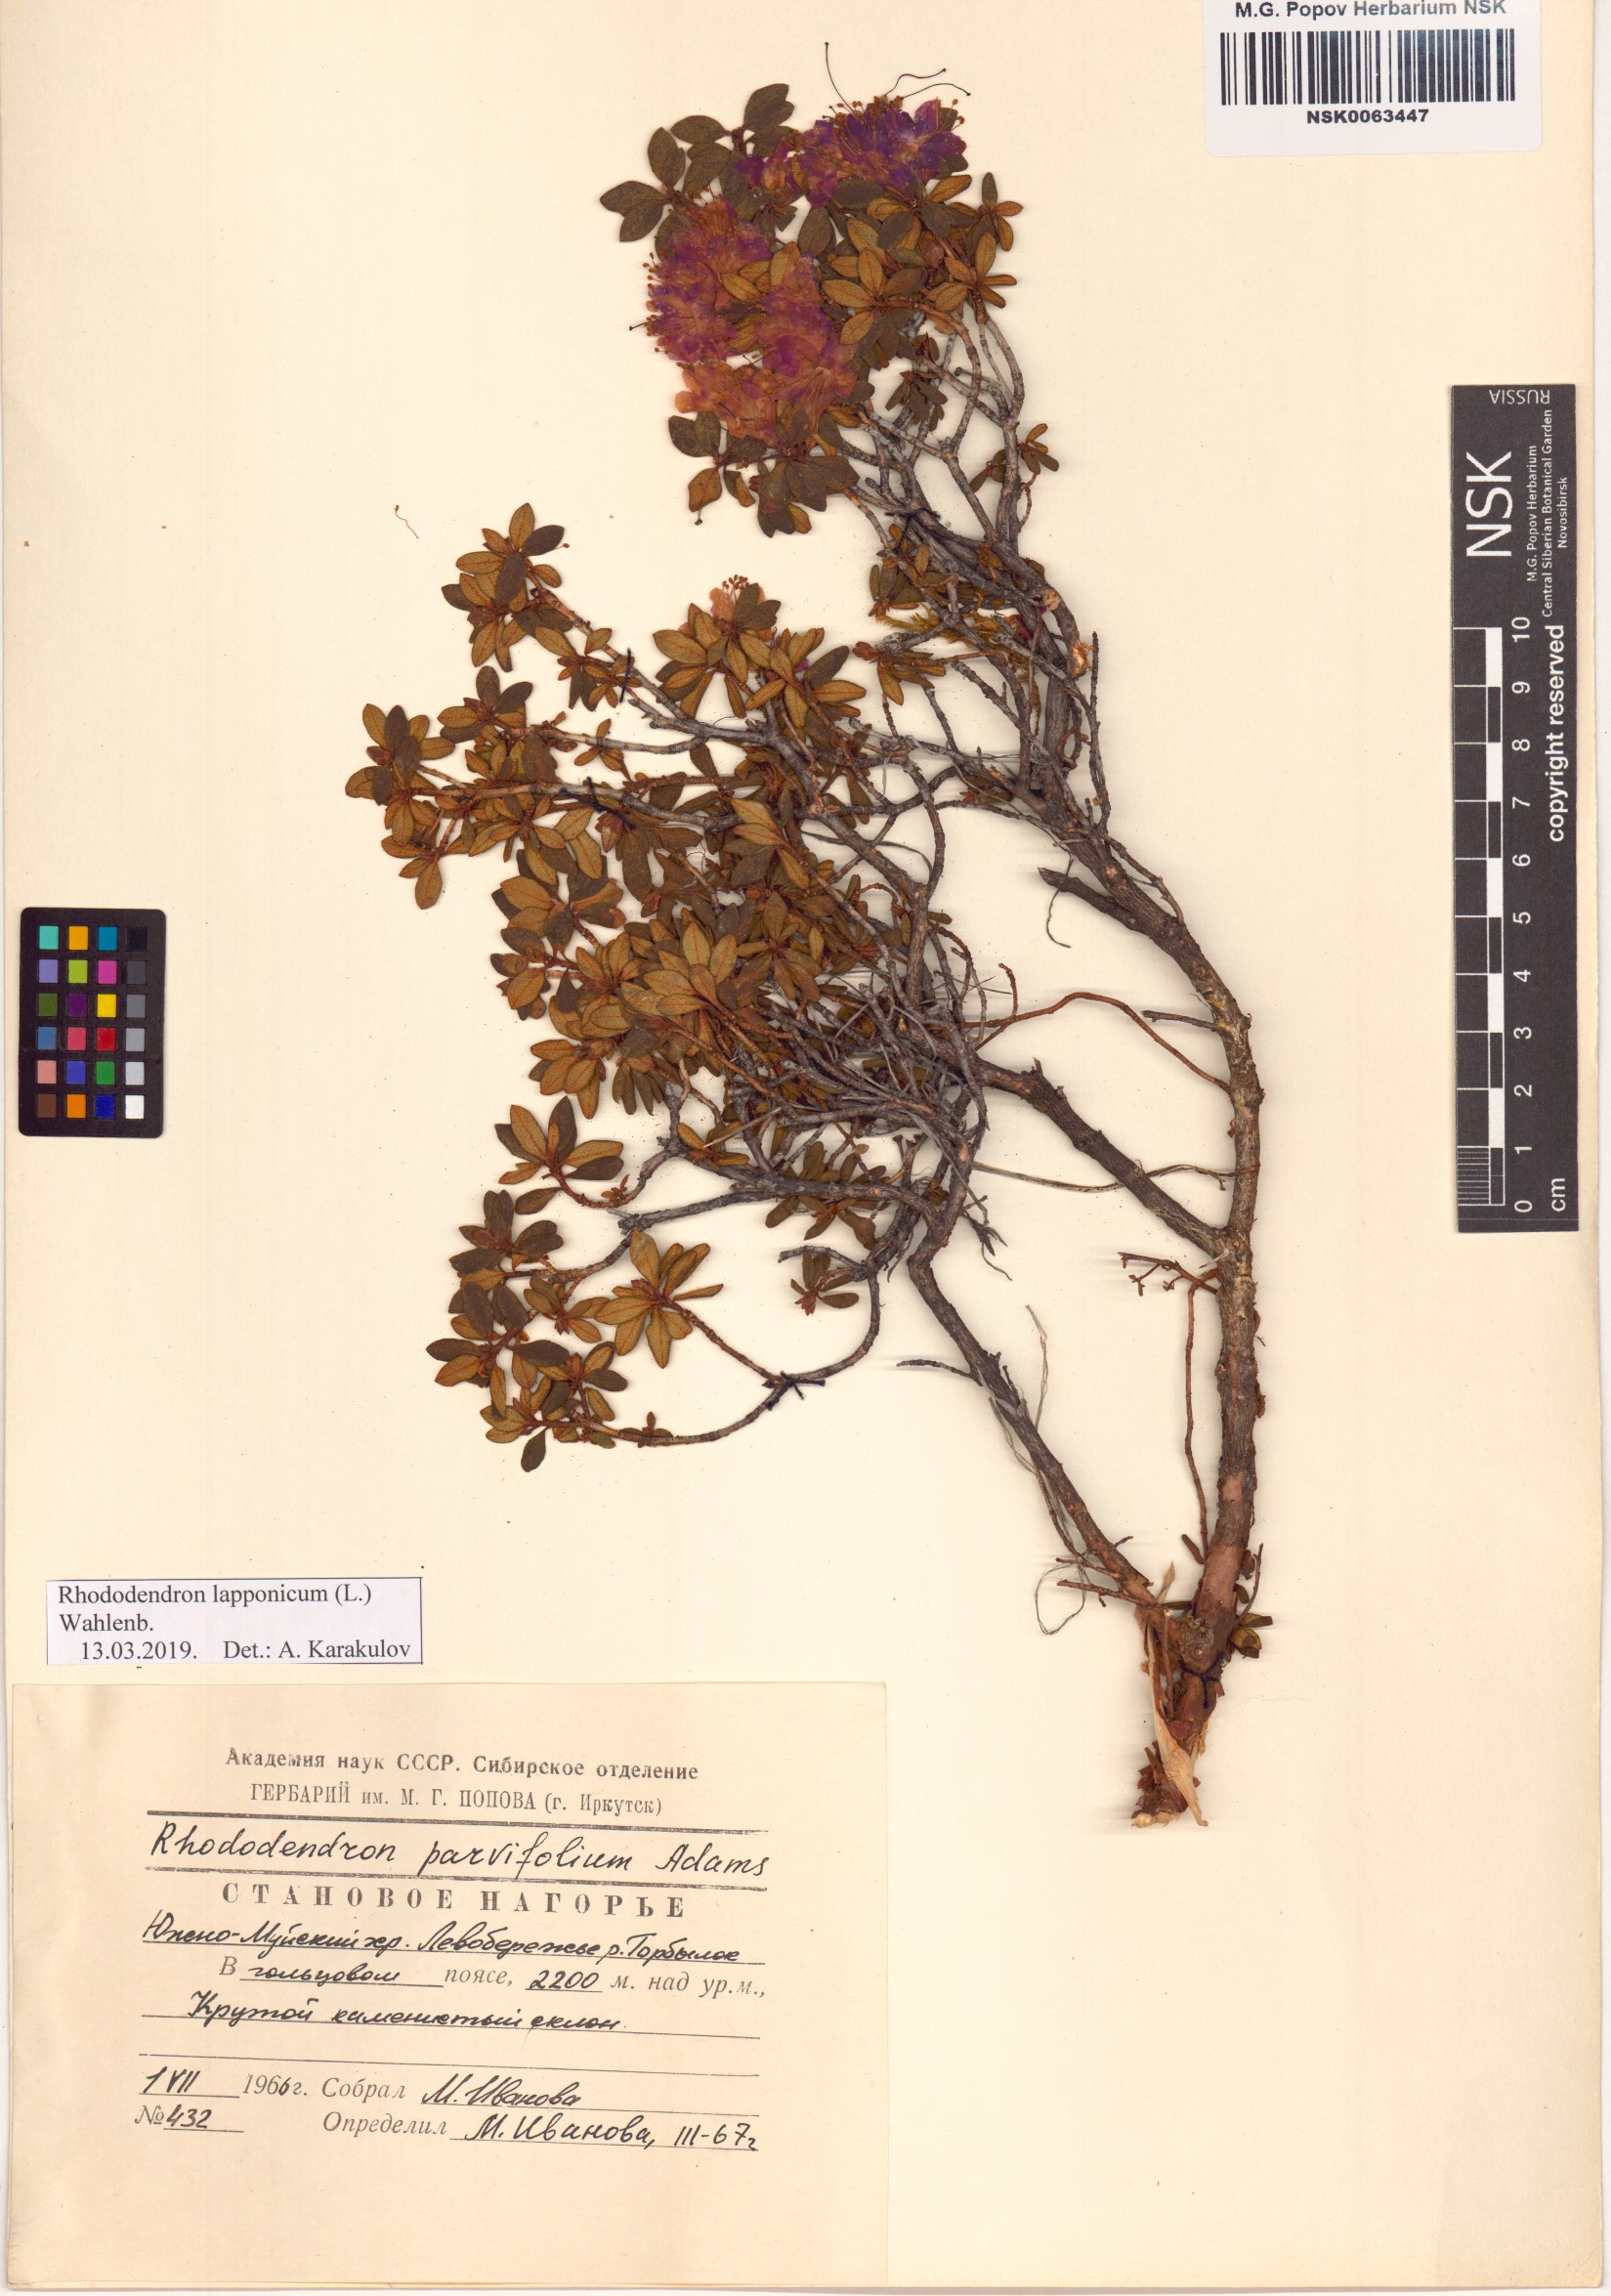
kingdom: Plantae
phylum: Tracheophyta
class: Magnoliopsida
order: Ericales
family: Ericaceae
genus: Rhododendron
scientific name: Rhododendron lapponicum
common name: Lapland rhododendron
